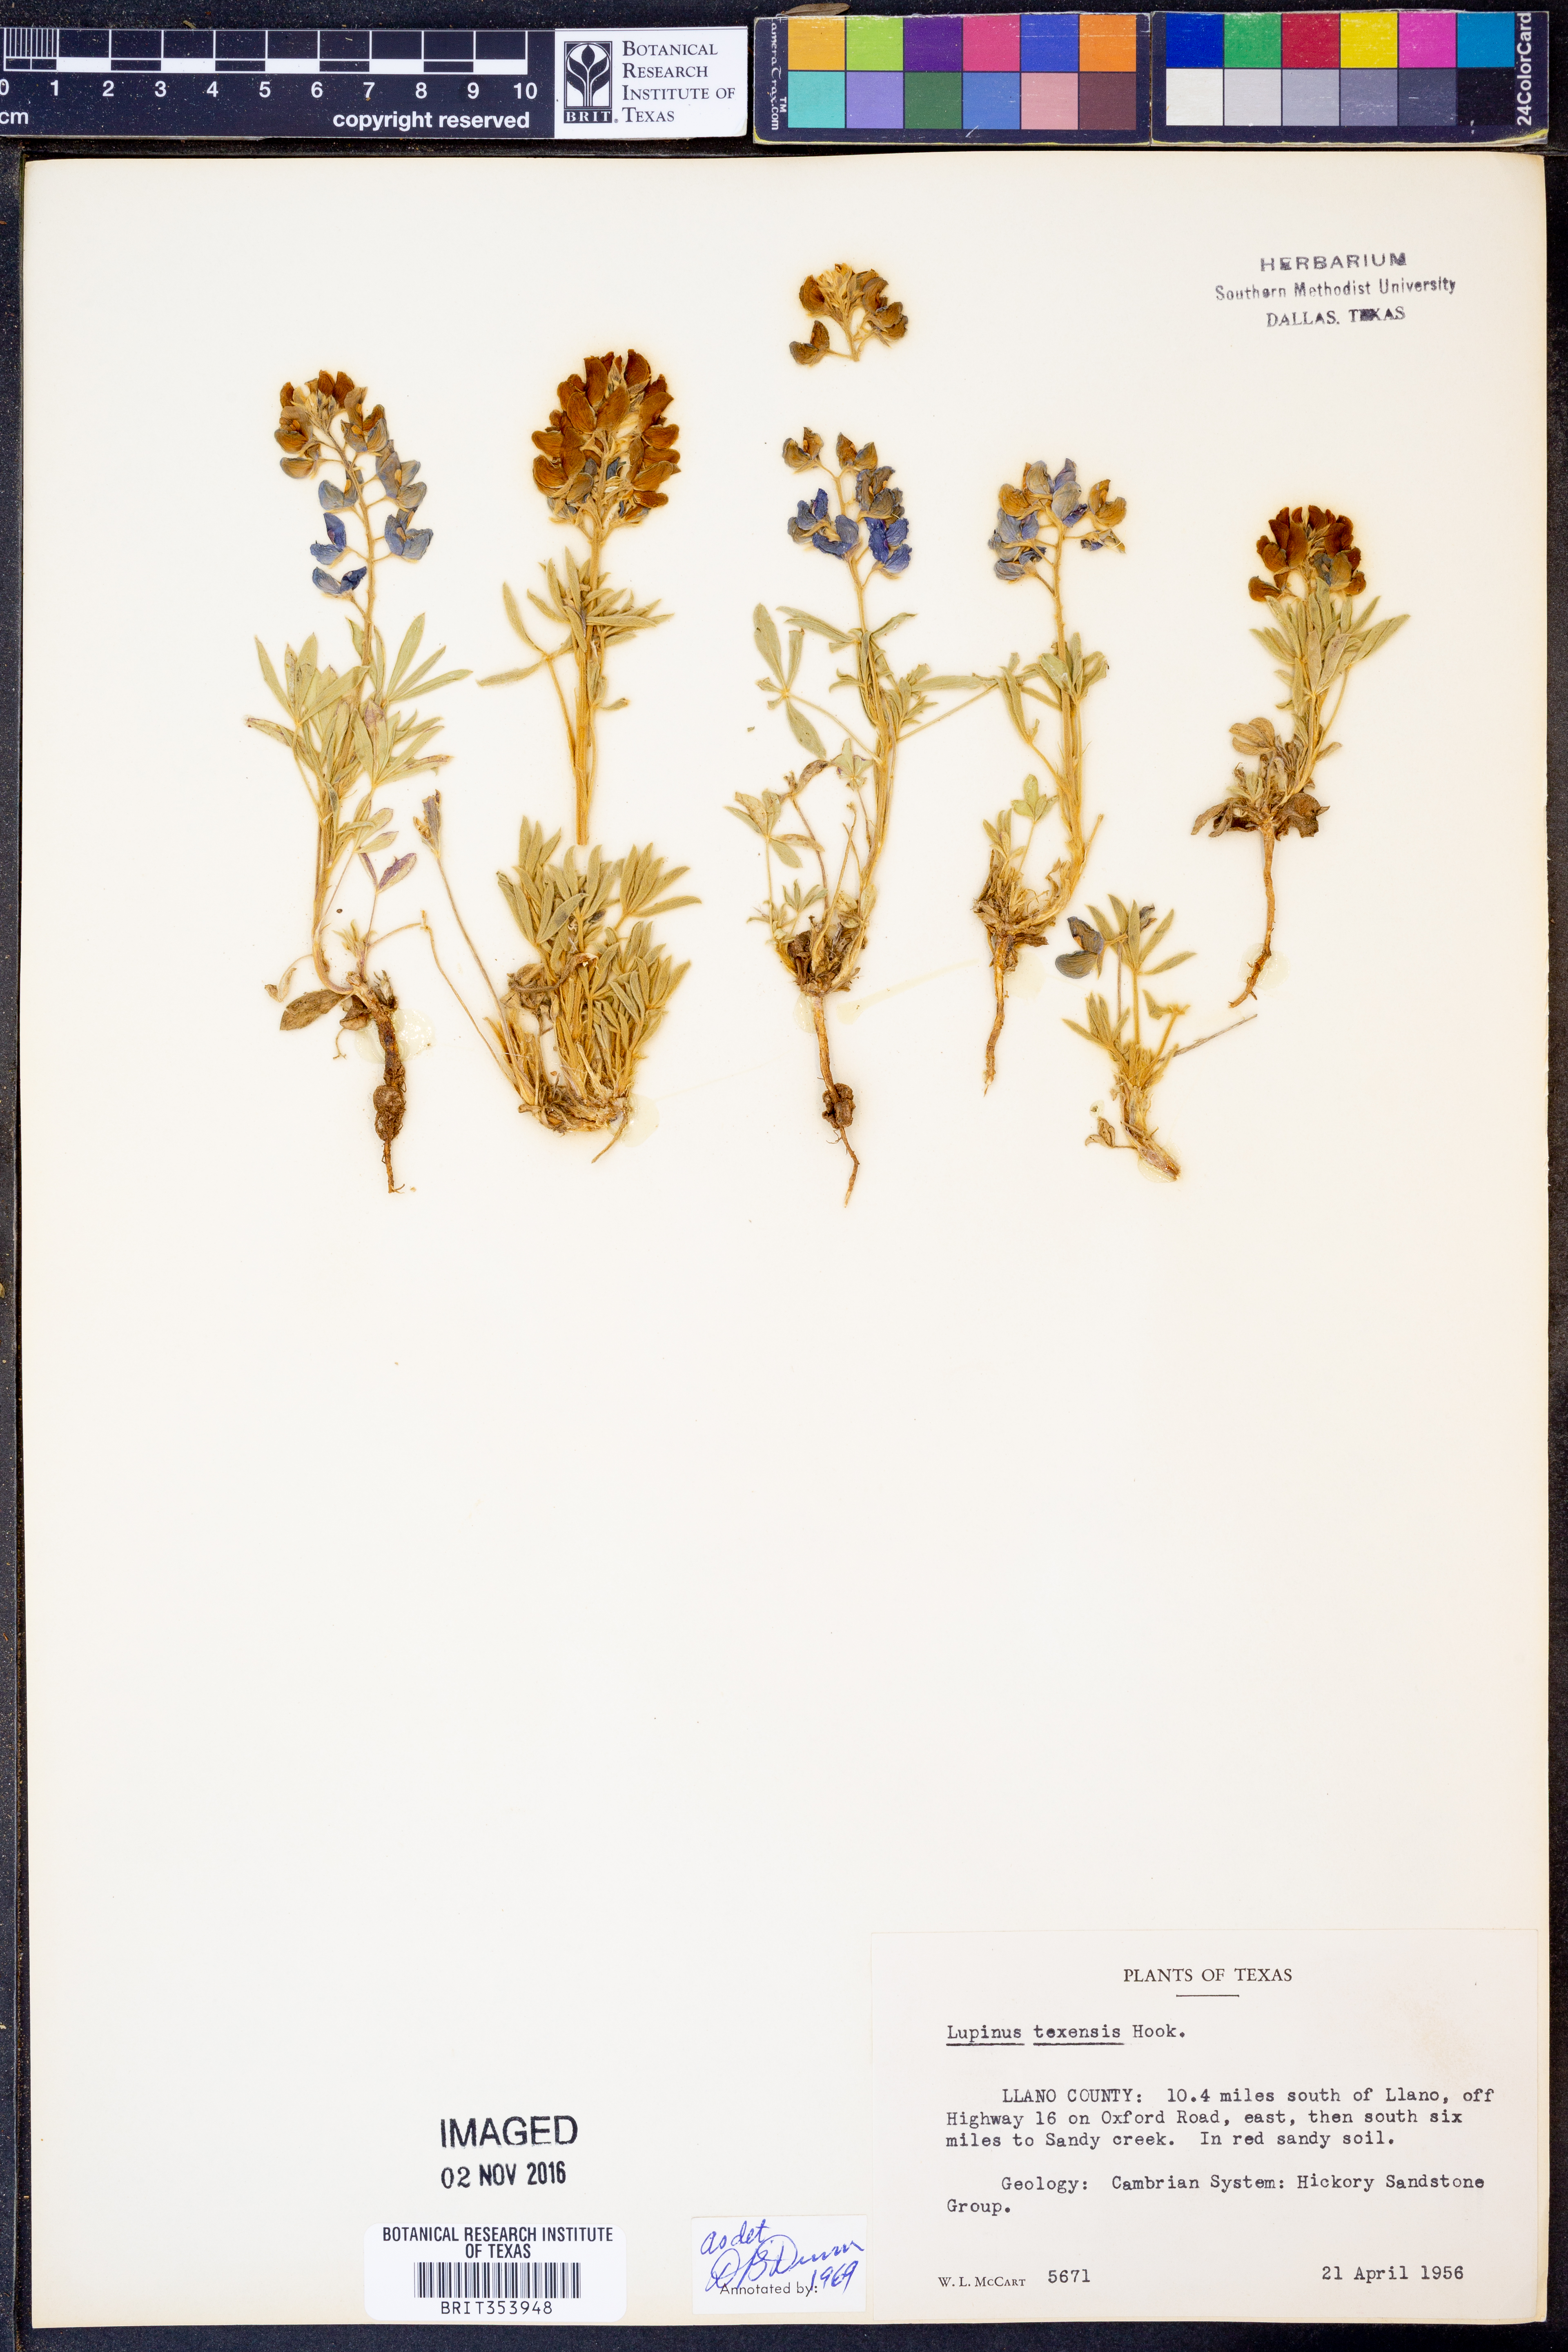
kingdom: Plantae
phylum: Tracheophyta
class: Magnoliopsida
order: Fabales
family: Fabaceae
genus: Lupinus
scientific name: Lupinus texensis
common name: Texas bluebonnet
